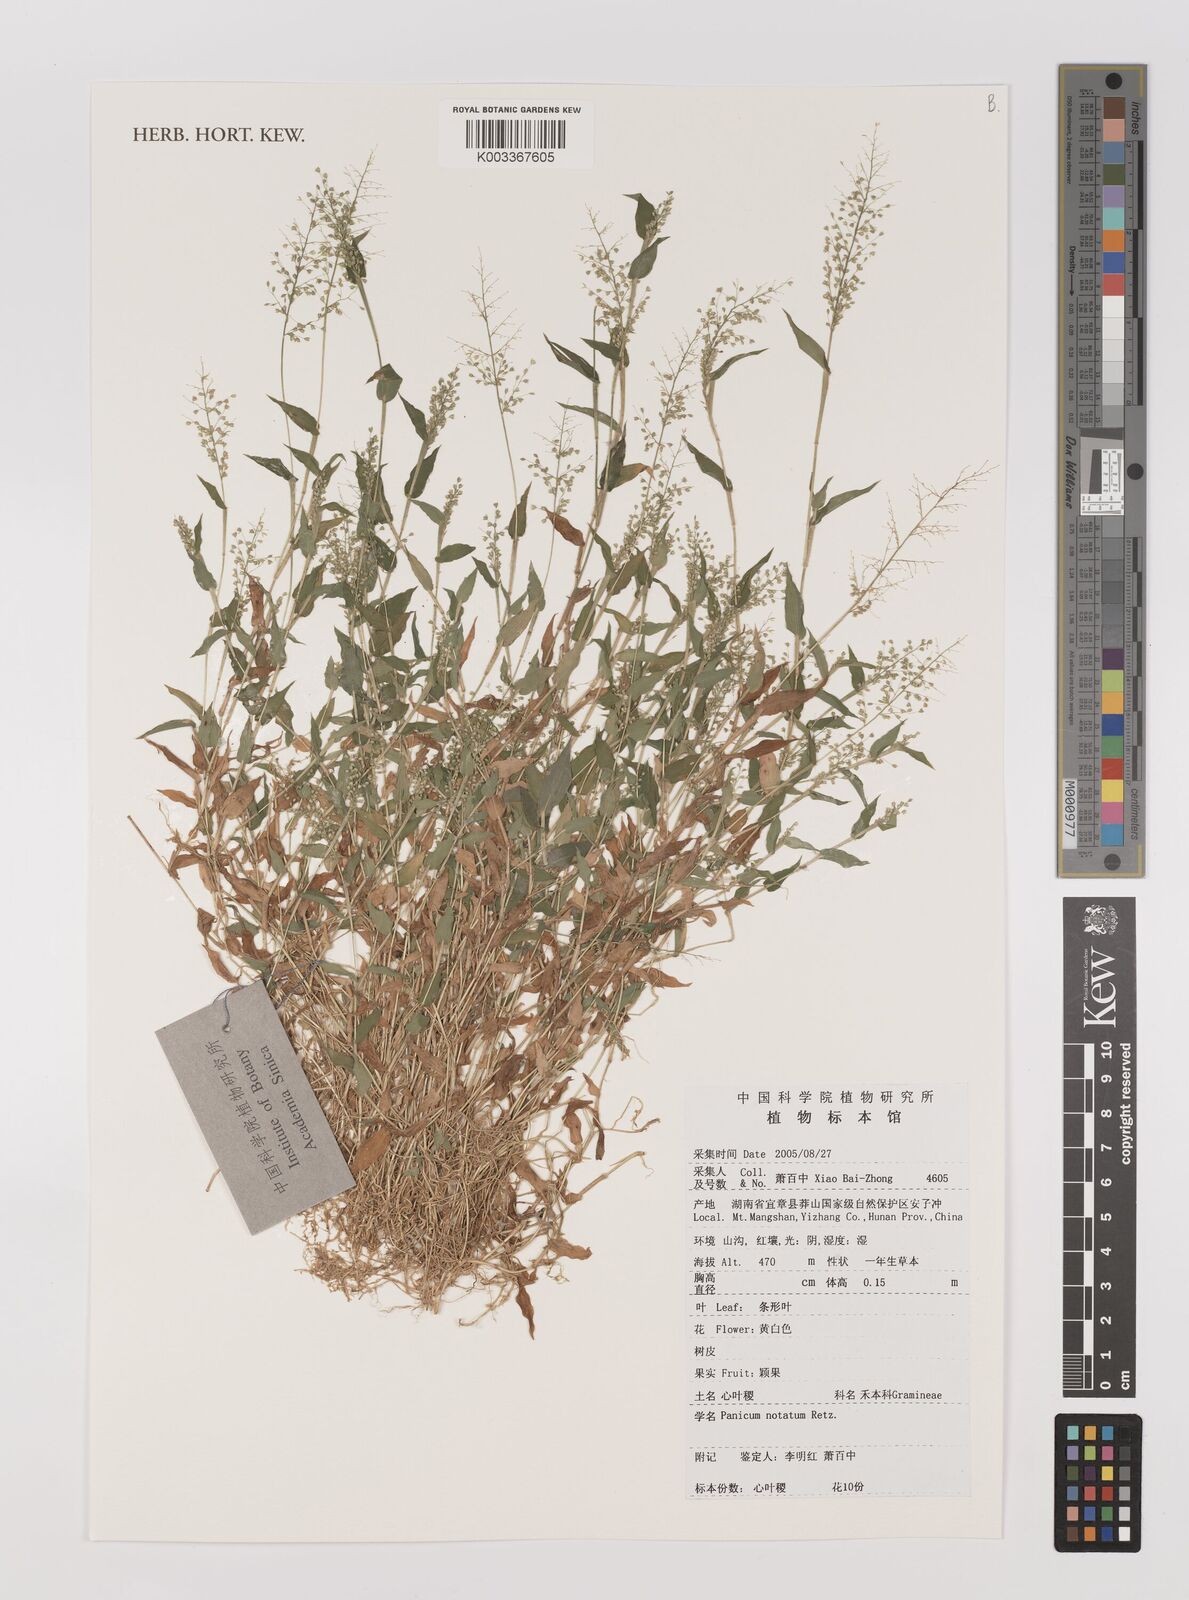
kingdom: Plantae
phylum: Tracheophyta
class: Liliopsida
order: Poales
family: Poaceae
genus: Panicum
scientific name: Panicum notatum
